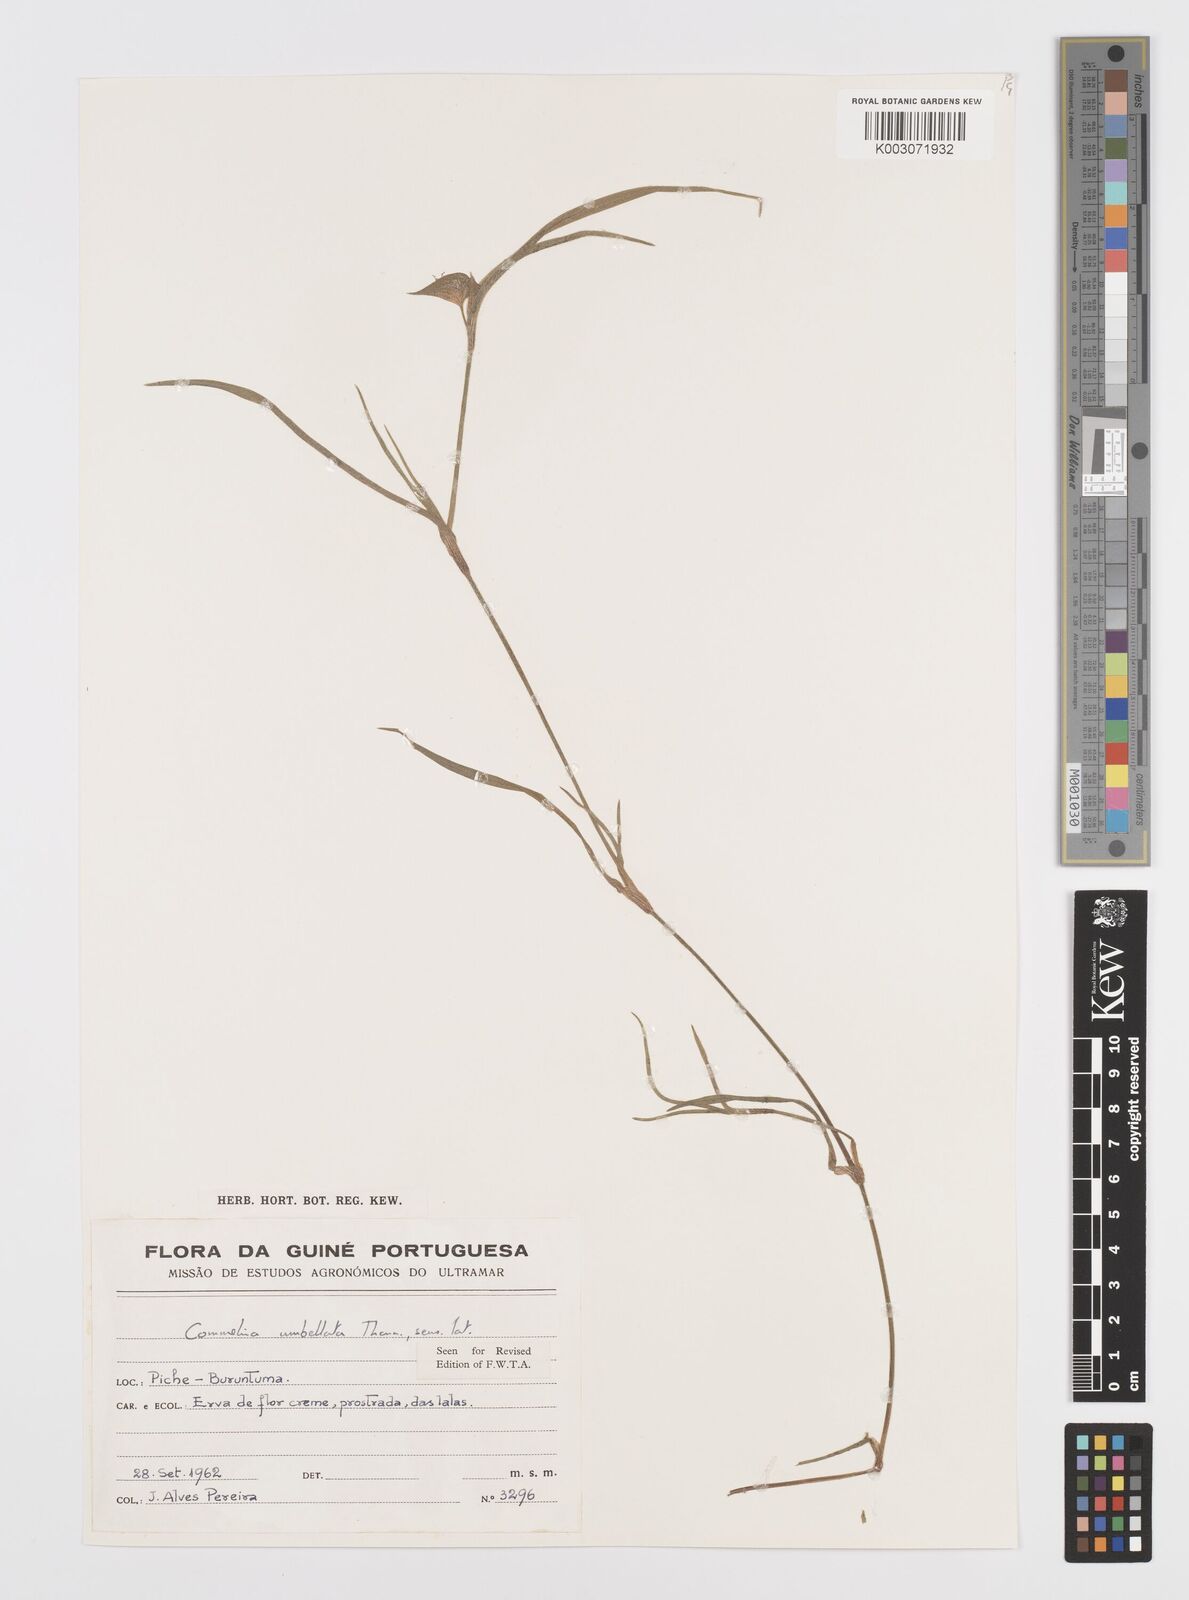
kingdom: Plantae
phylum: Tracheophyta
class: Liliopsida
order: Commelinales
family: Commelinaceae
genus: Commelina
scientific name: Commelina
